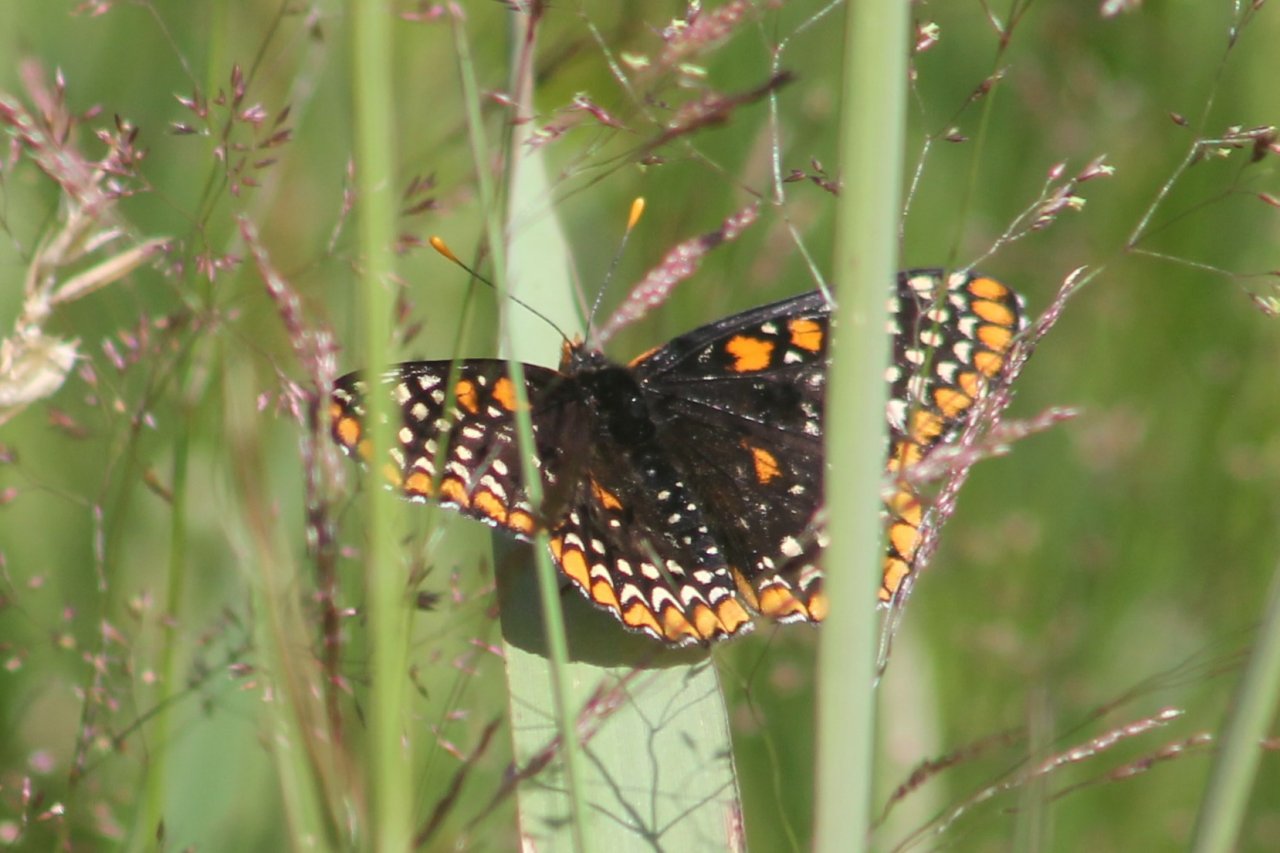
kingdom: Animalia
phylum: Arthropoda
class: Insecta
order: Lepidoptera
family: Nymphalidae
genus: Euphydryas
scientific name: Euphydryas phaeton
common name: Baltimore Checkerspot
